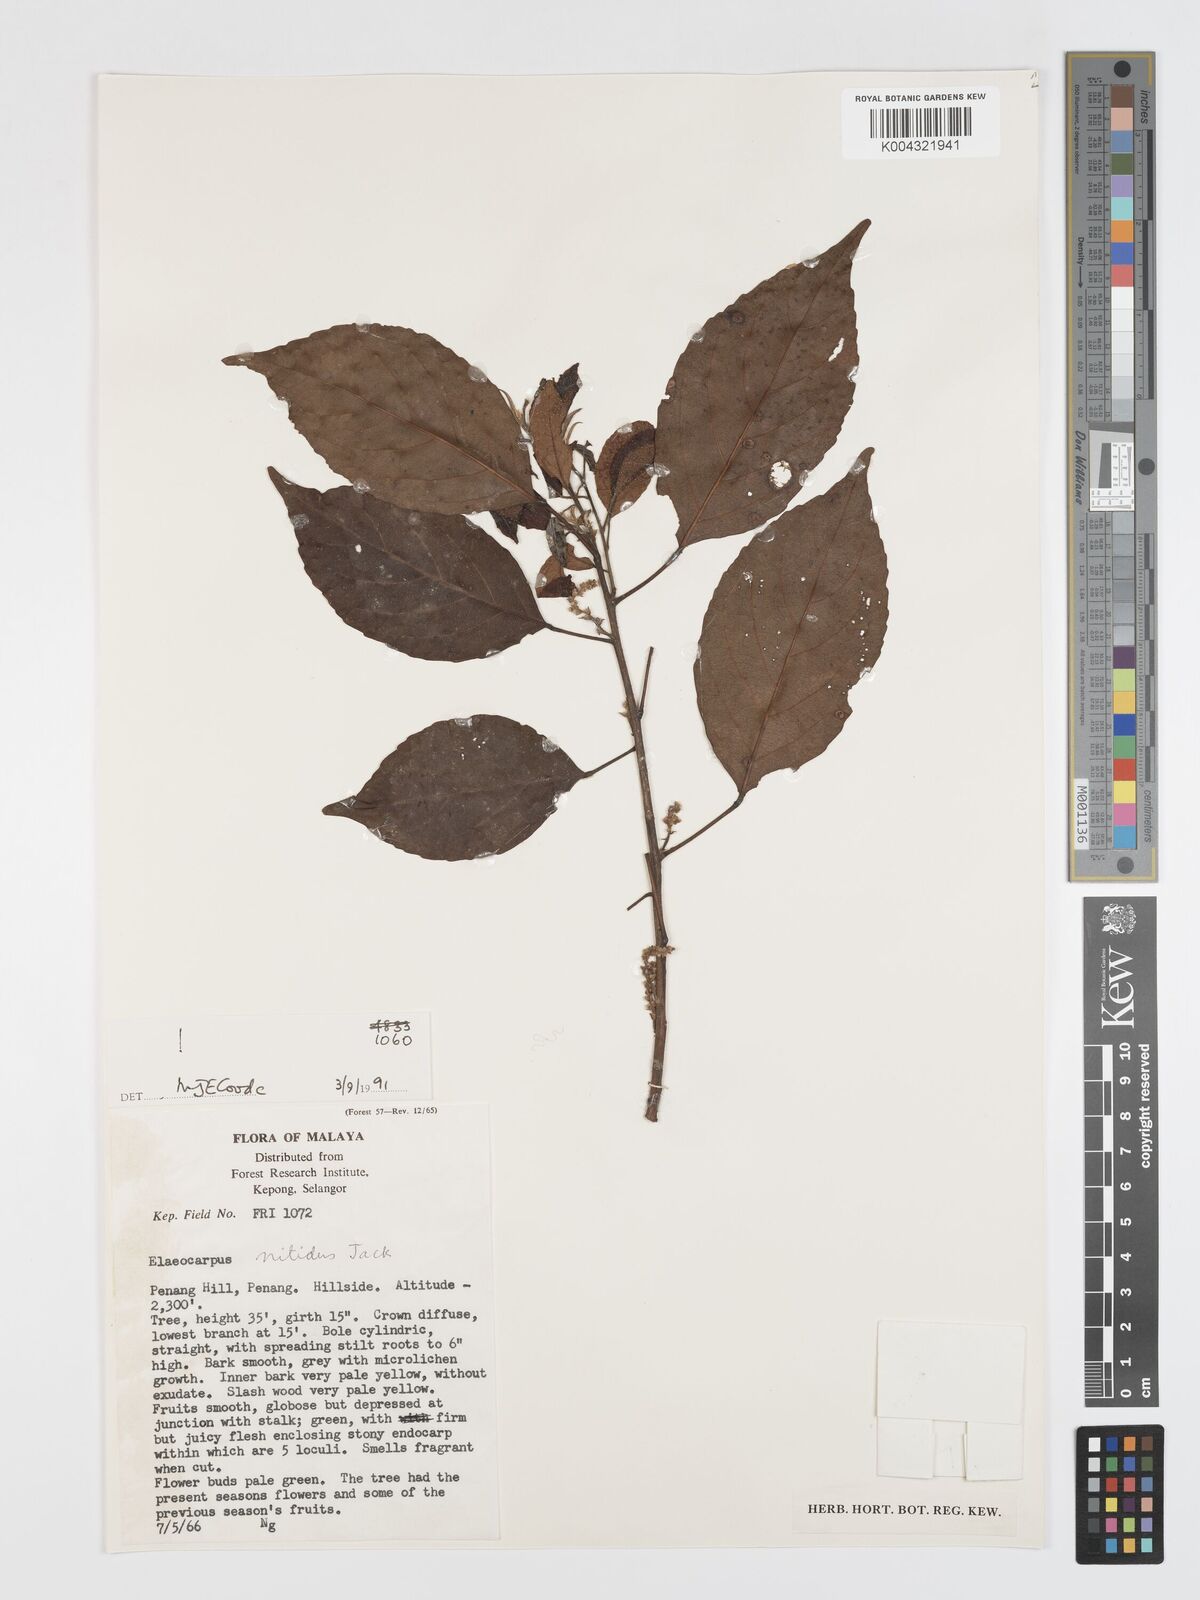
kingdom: Plantae
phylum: Tracheophyta
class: Magnoliopsida
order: Oxalidales
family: Elaeocarpaceae
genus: Elaeocarpus
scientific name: Elaeocarpus nitidus
